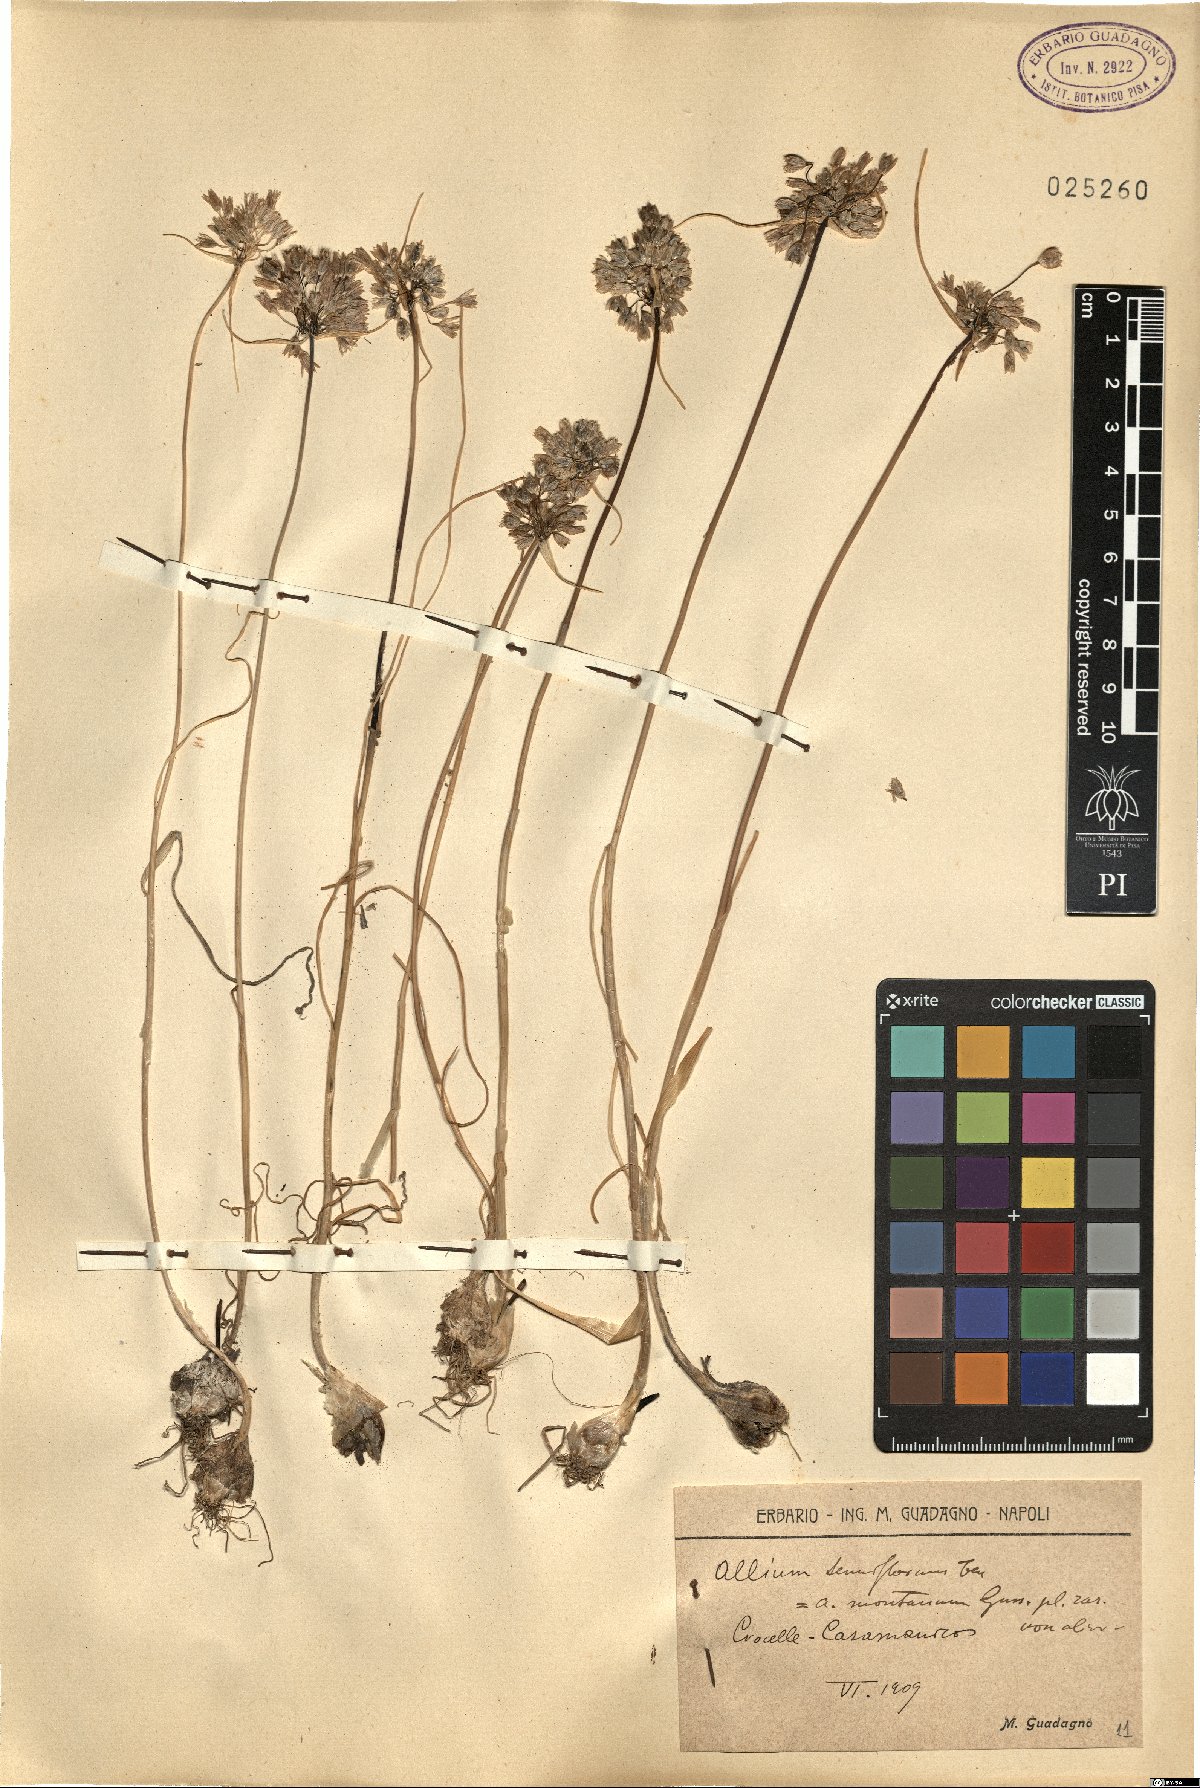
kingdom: Plantae
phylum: Tracheophyta
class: Liliopsida
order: Asparagales
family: Amaryllidaceae
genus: Allium
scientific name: Allium tenuiflorum
